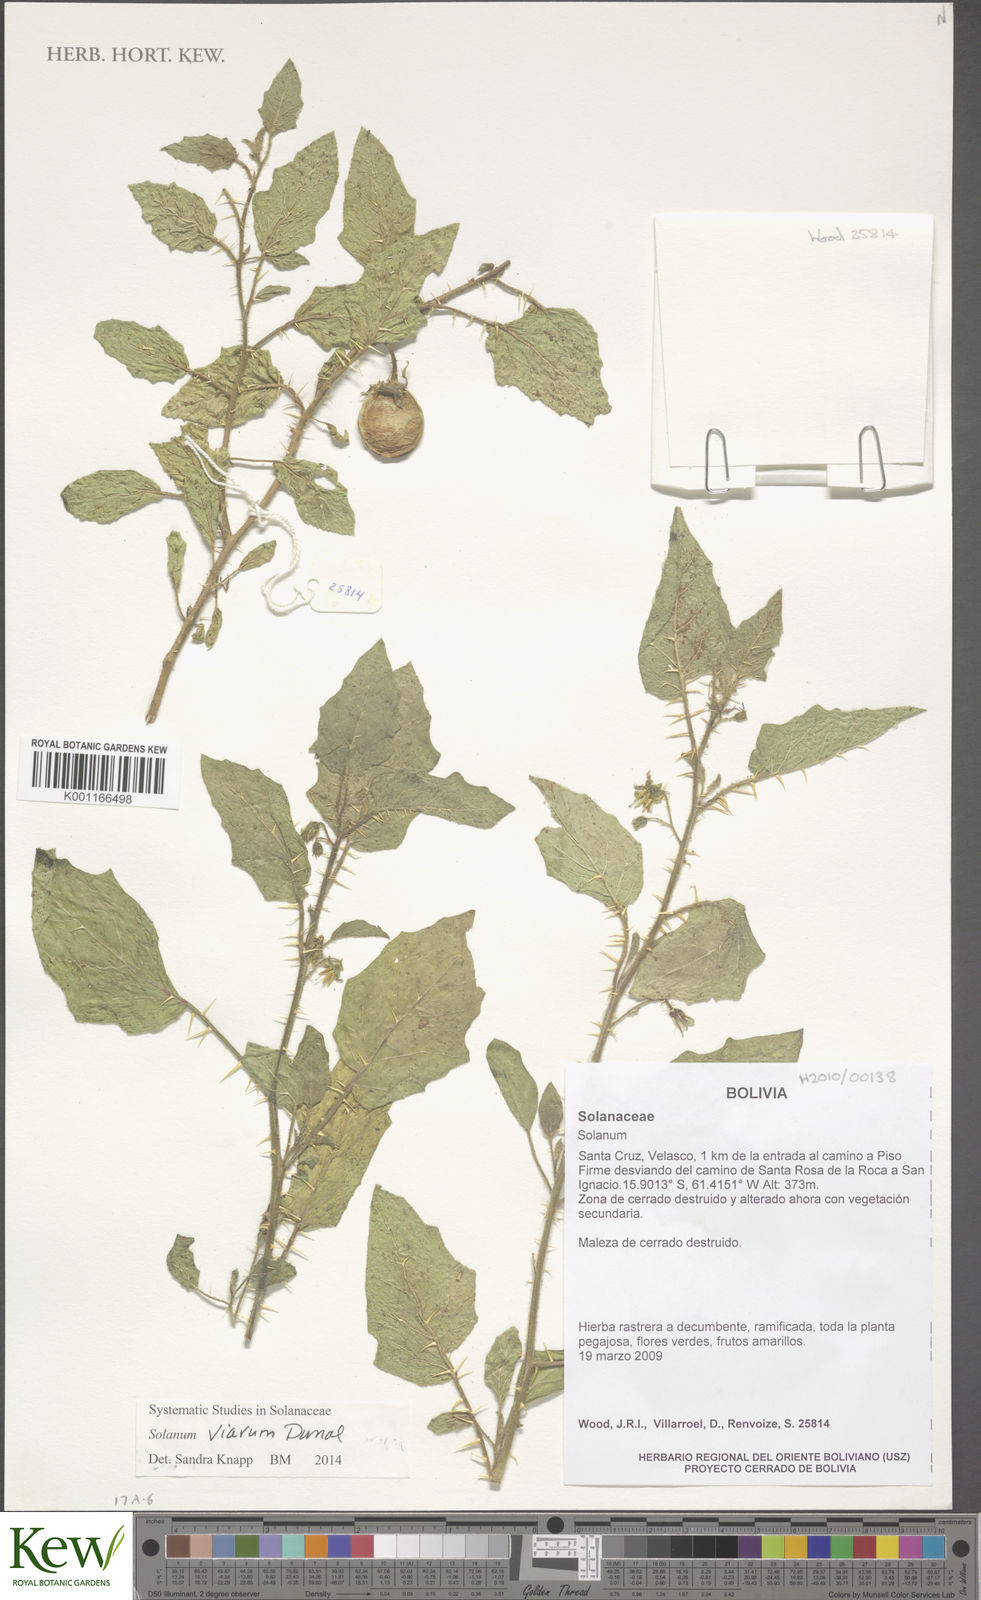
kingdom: Plantae
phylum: Tracheophyta
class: Magnoliopsida
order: Solanales
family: Solanaceae
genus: Solanum
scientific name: Solanum viarum
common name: Tropical soda apple
